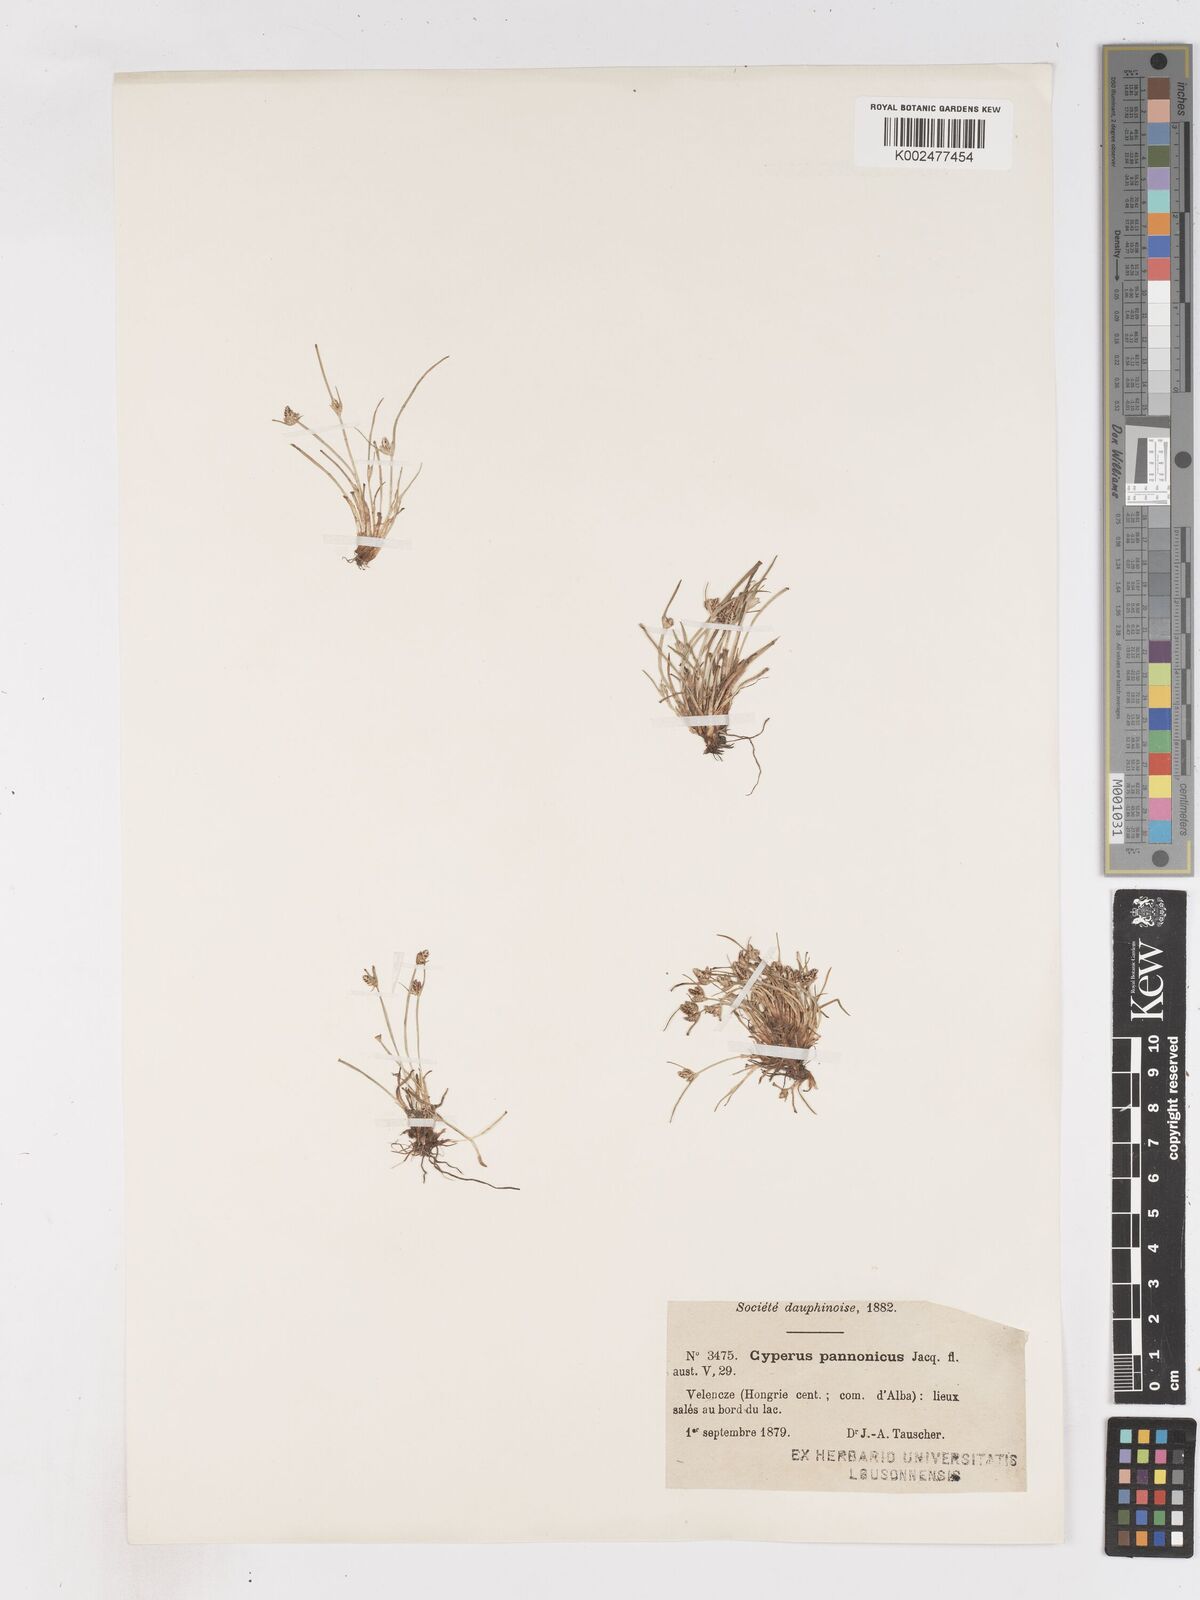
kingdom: Plantae
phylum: Tracheophyta
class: Liliopsida
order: Poales
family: Cyperaceae
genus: Cyperus
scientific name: Cyperus pannonicus
